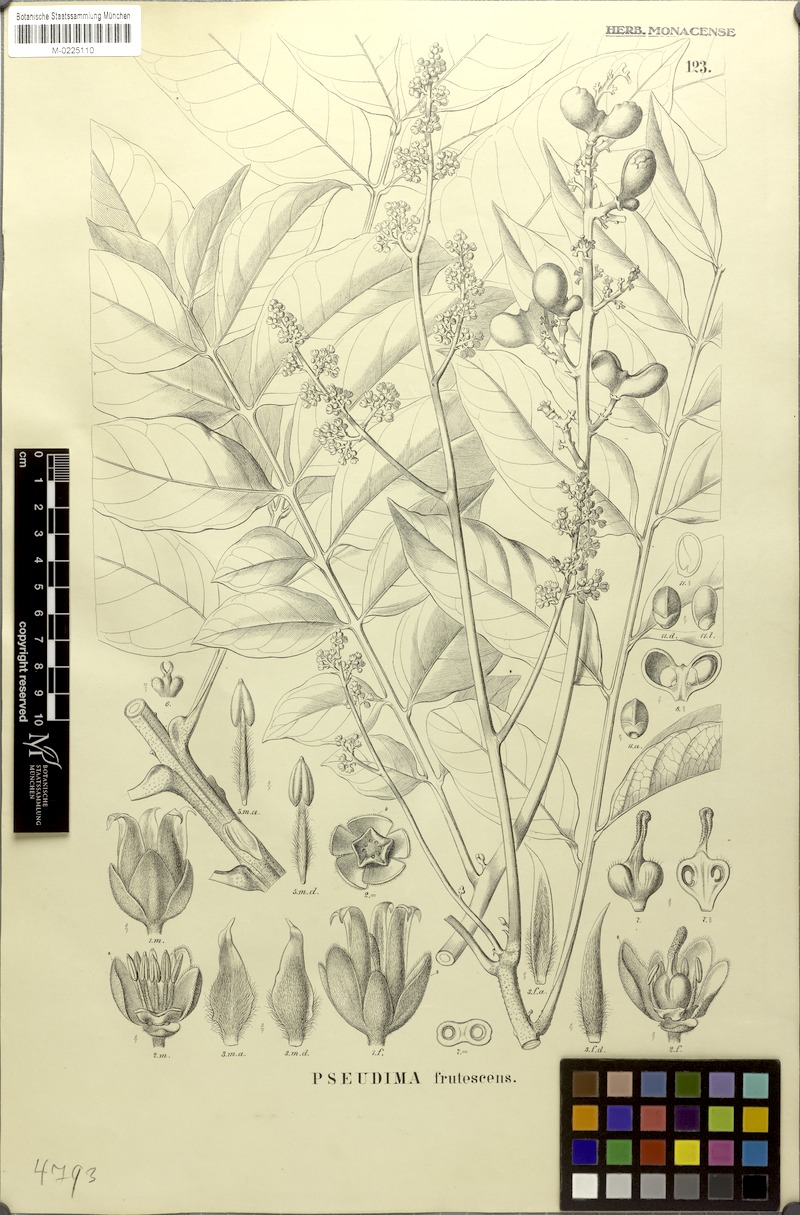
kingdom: Plantae
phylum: Tracheophyta
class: Magnoliopsida
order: Sapindales
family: Sapindaceae
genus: Pseudima
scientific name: Pseudima frutescens
